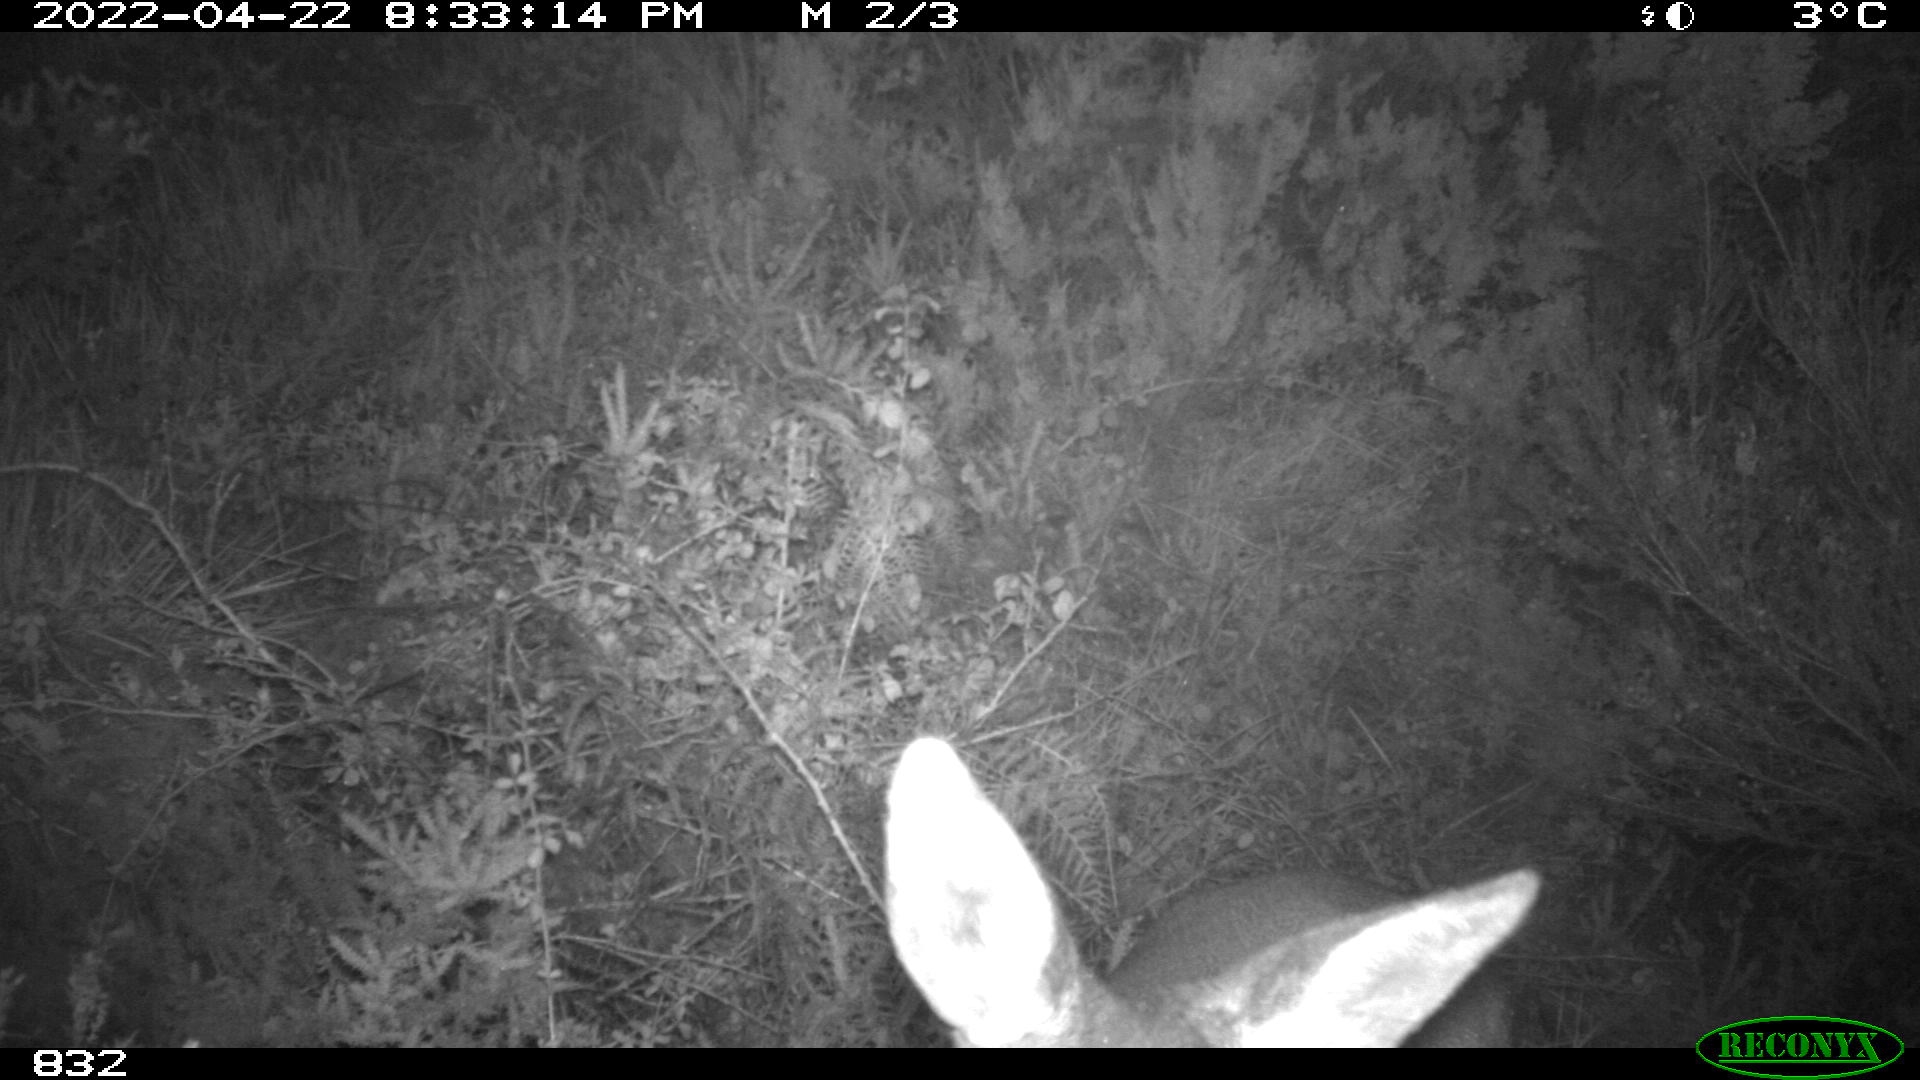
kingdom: Animalia
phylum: Chordata
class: Mammalia
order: Artiodactyla
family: Cervidae
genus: Capreolus
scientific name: Capreolus capreolus
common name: Western roe deer
